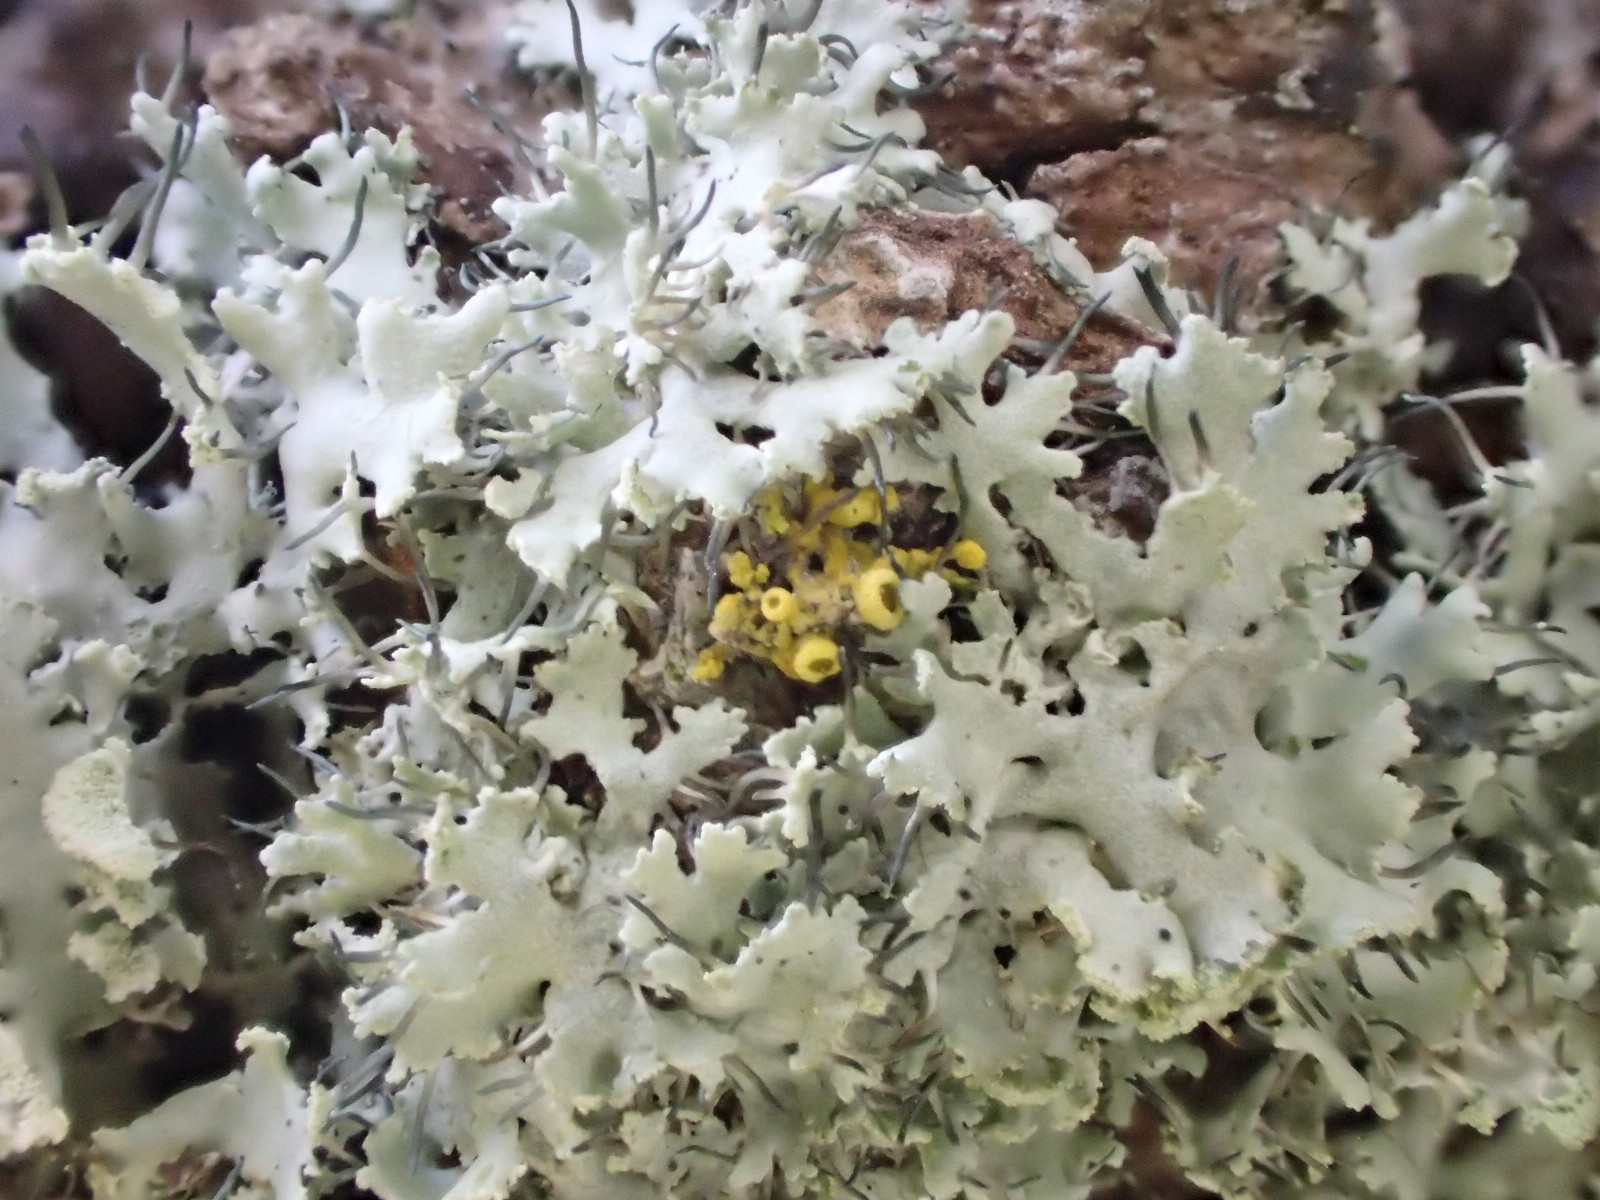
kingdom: Fungi
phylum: Ascomycota
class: Lecanoromycetes
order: Teloschistales
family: Teloschistaceae
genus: Polycauliona
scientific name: Polycauliona polycarpa
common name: mangefrugtet orangelav
